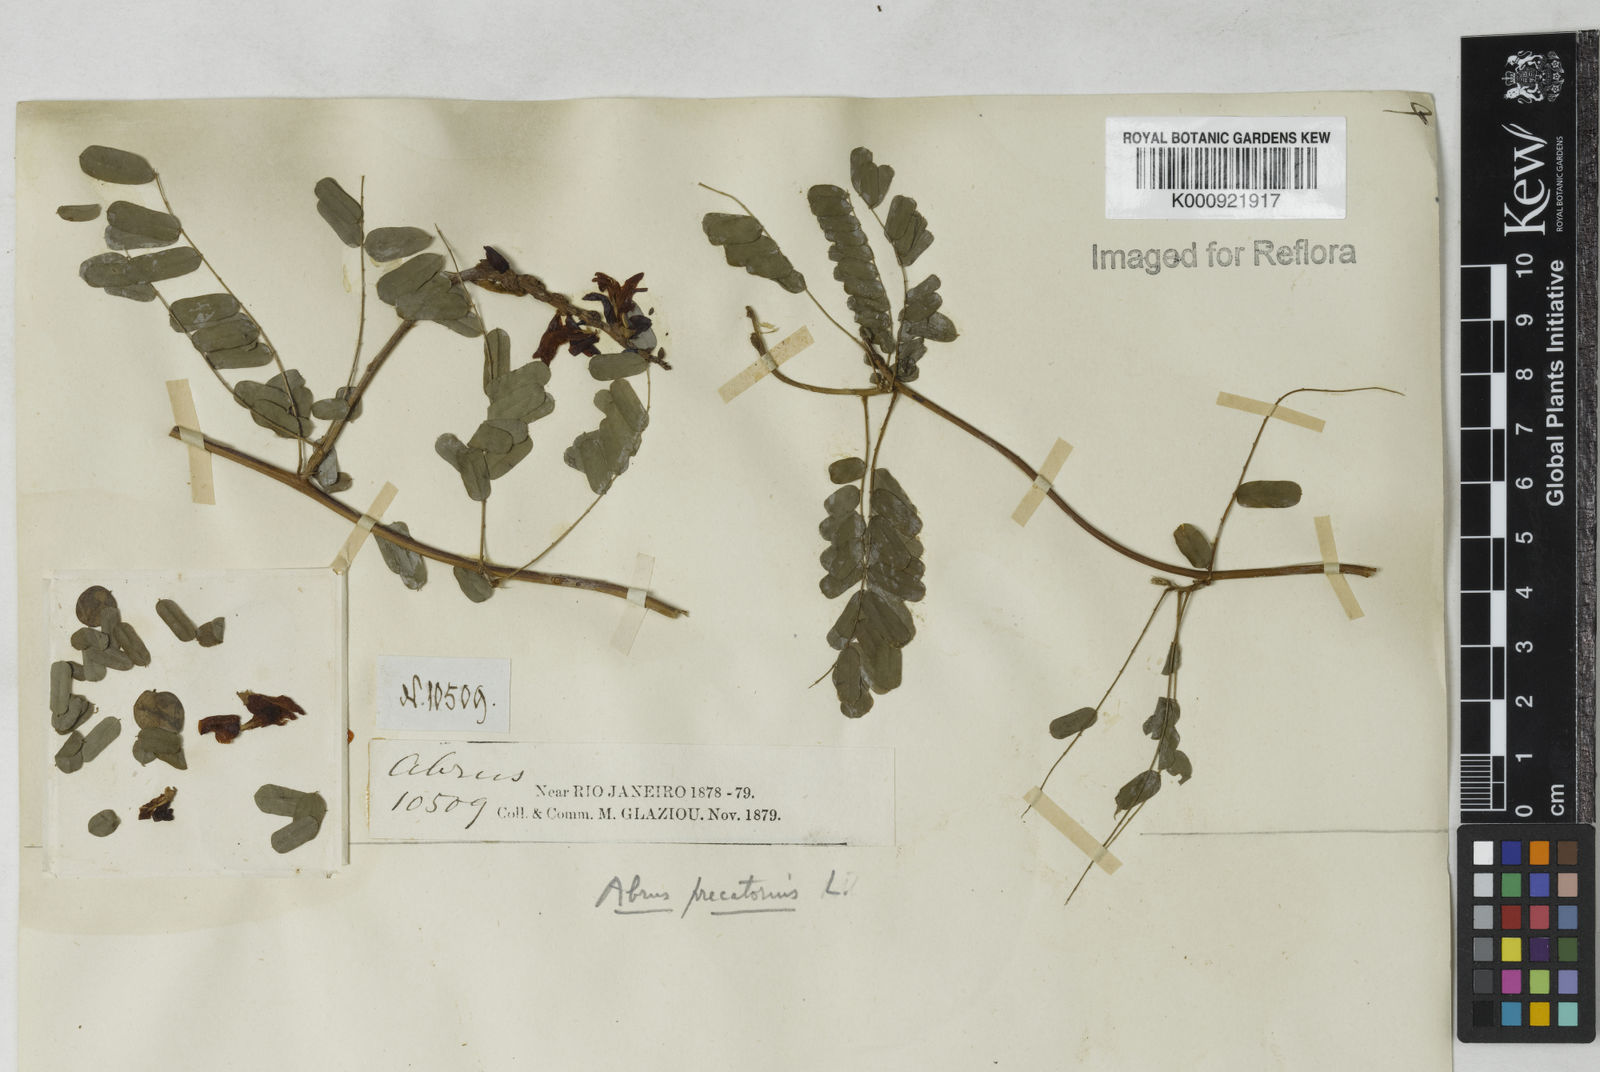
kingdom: Plantae
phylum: Tracheophyta
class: Magnoliopsida
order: Fabales
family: Fabaceae
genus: Abrus
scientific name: Abrus precatorius
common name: Rosarypea
